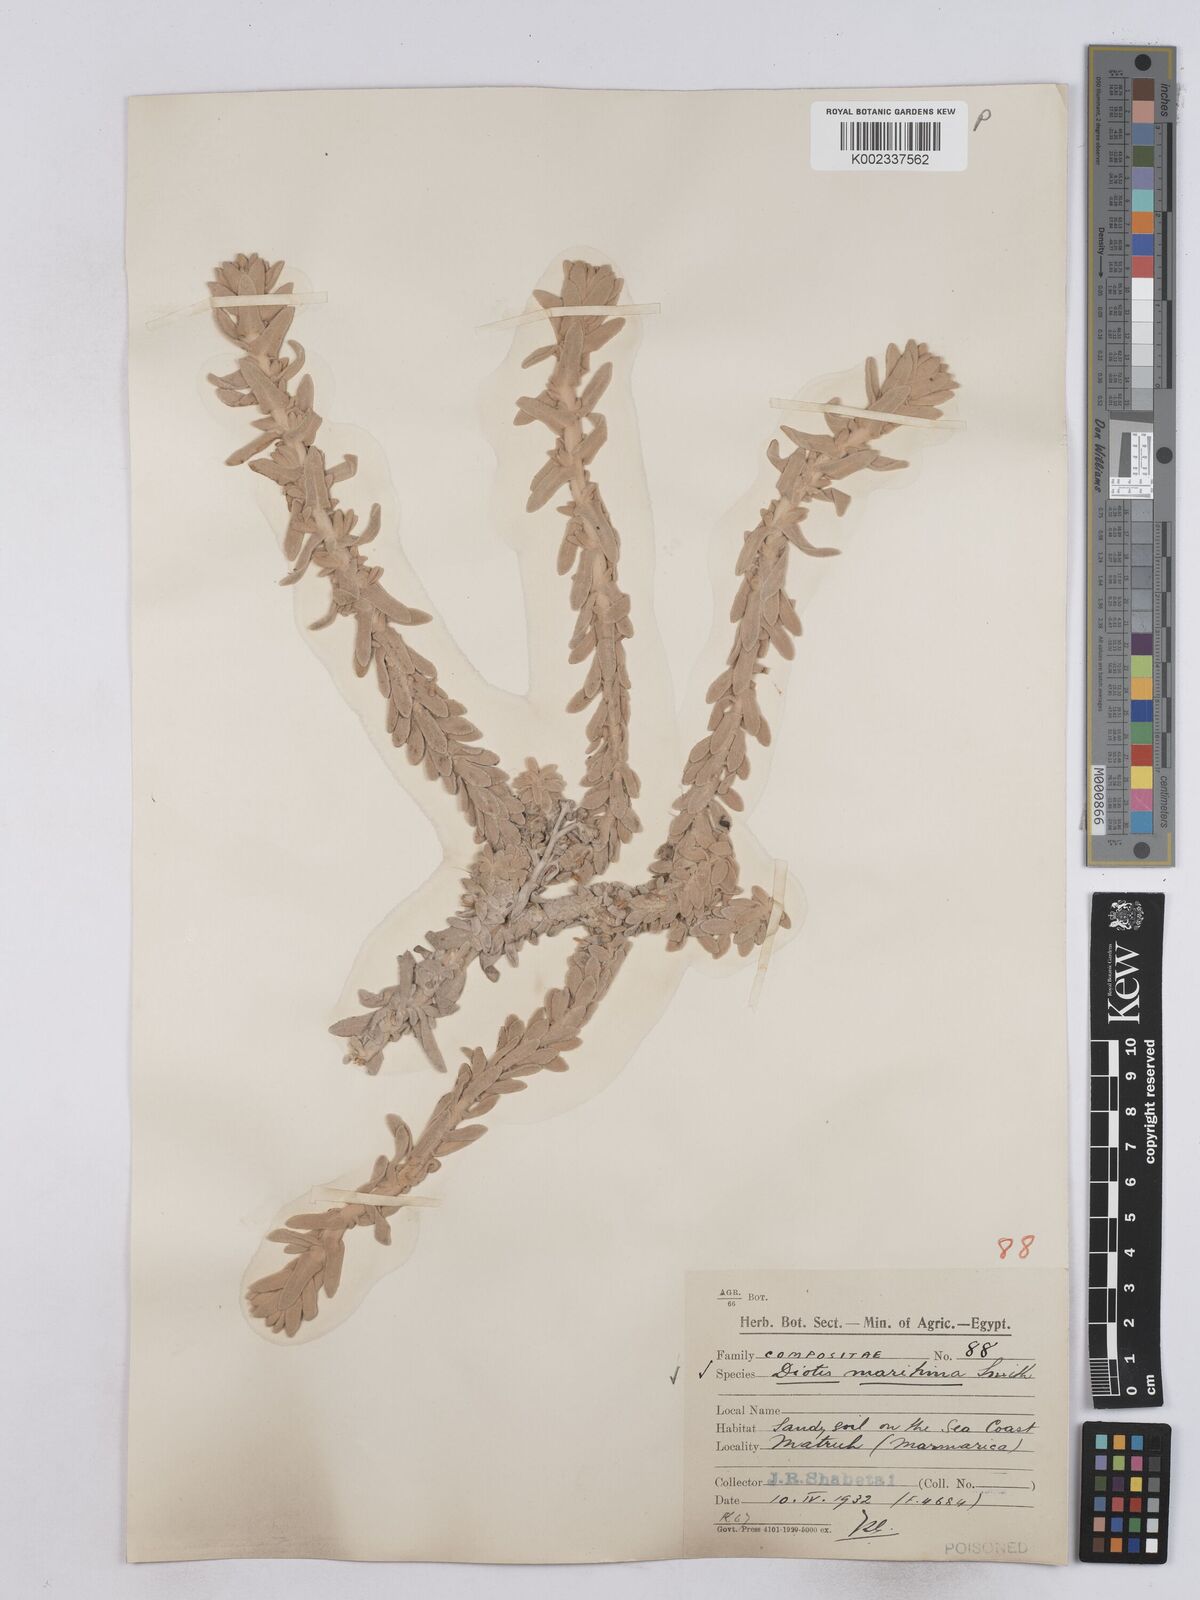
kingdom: Plantae
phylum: Tracheophyta
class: Magnoliopsida
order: Asterales
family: Asteraceae
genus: Achillea
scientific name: Achillea maritima
